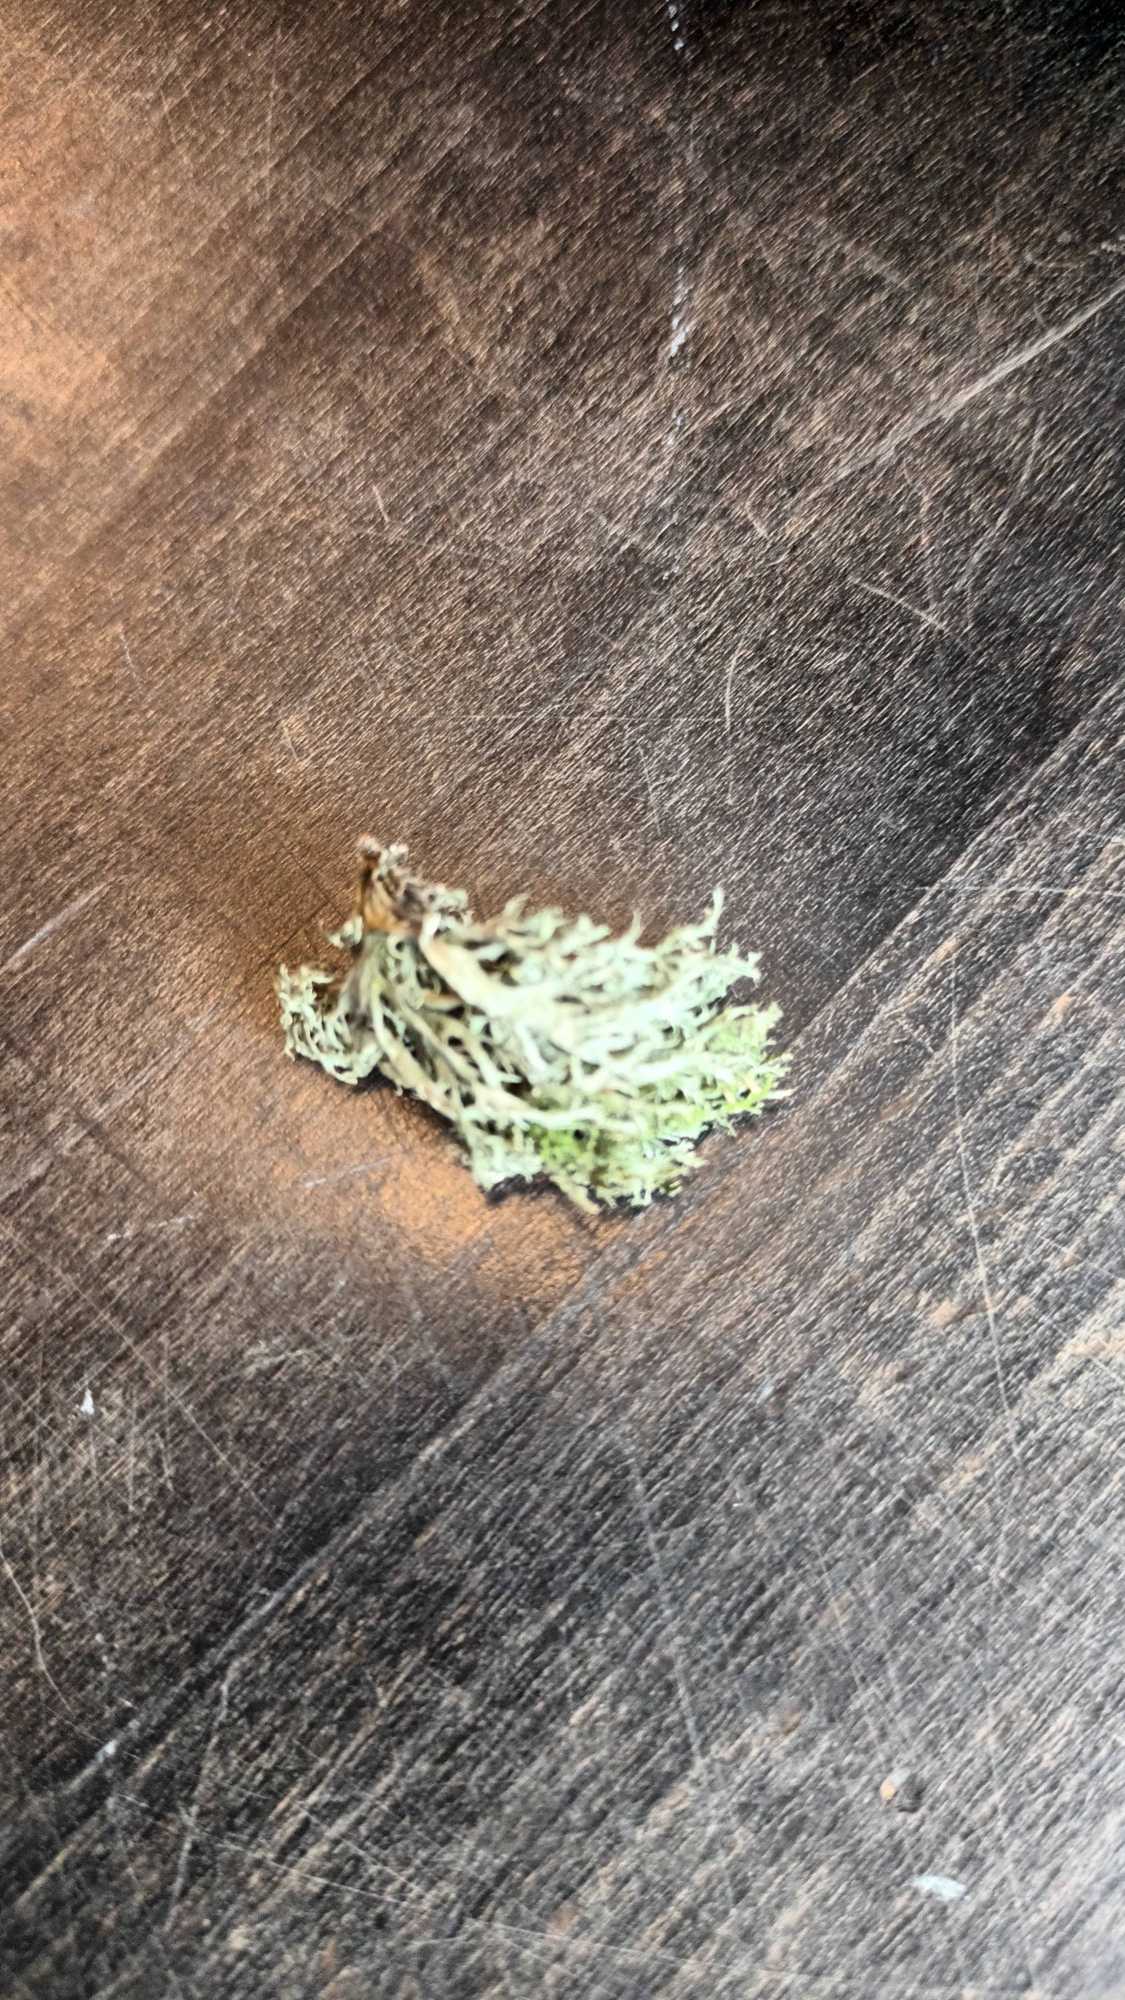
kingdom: Fungi
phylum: Ascomycota
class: Lecanoromycetes
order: Lecanorales
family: Ramalinaceae
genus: Ramalina
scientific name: Ramalina farinacea
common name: Melet grenlav
